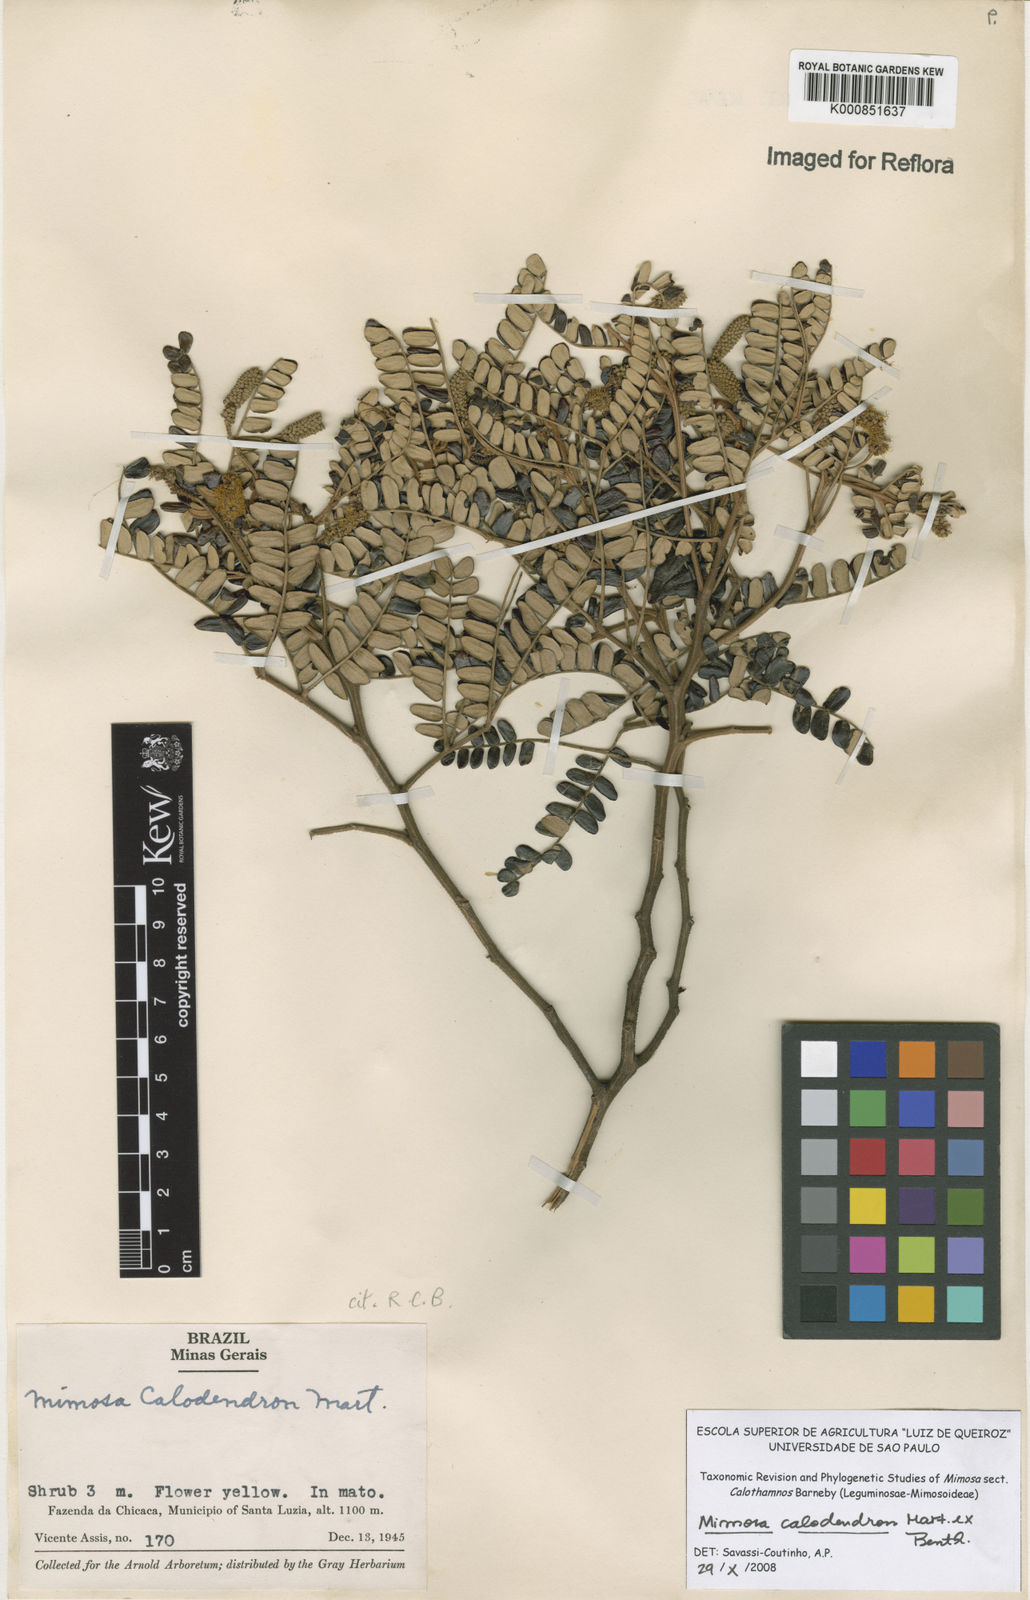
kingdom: Plantae
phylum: Tracheophyta
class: Magnoliopsida
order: Fabales
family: Fabaceae
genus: Mimosa
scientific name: Mimosa
